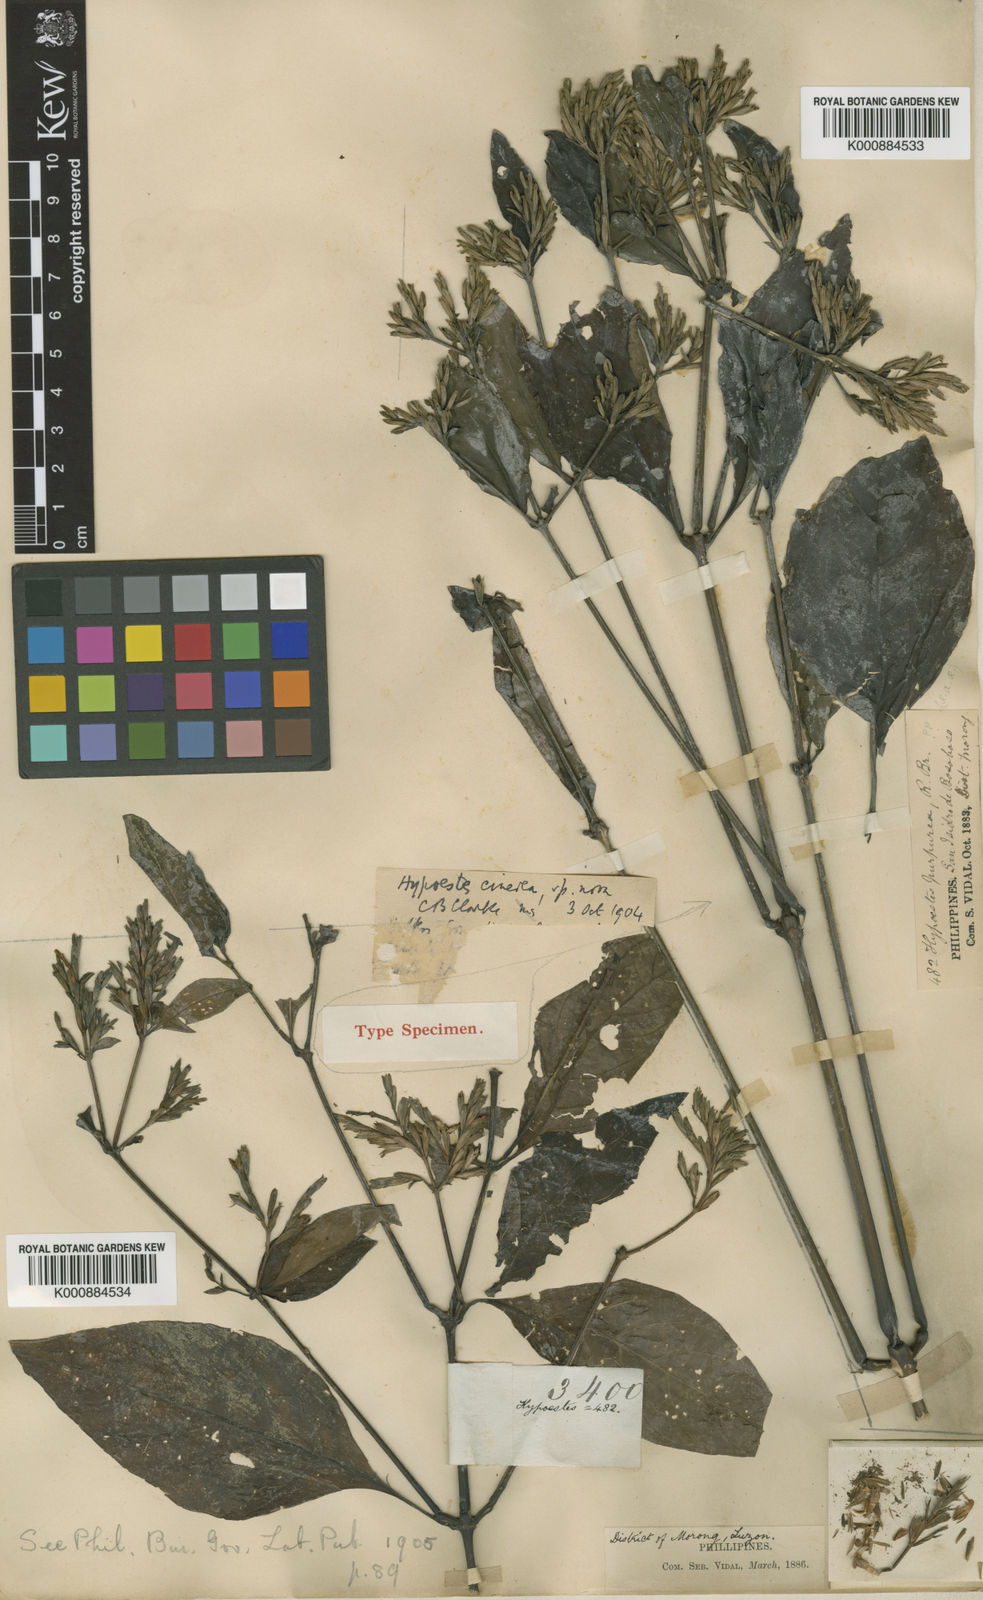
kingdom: Plantae
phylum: Tracheophyta
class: Magnoliopsida
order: Lamiales
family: Acanthaceae
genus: Hypoestes
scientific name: Hypoestes cinerea
